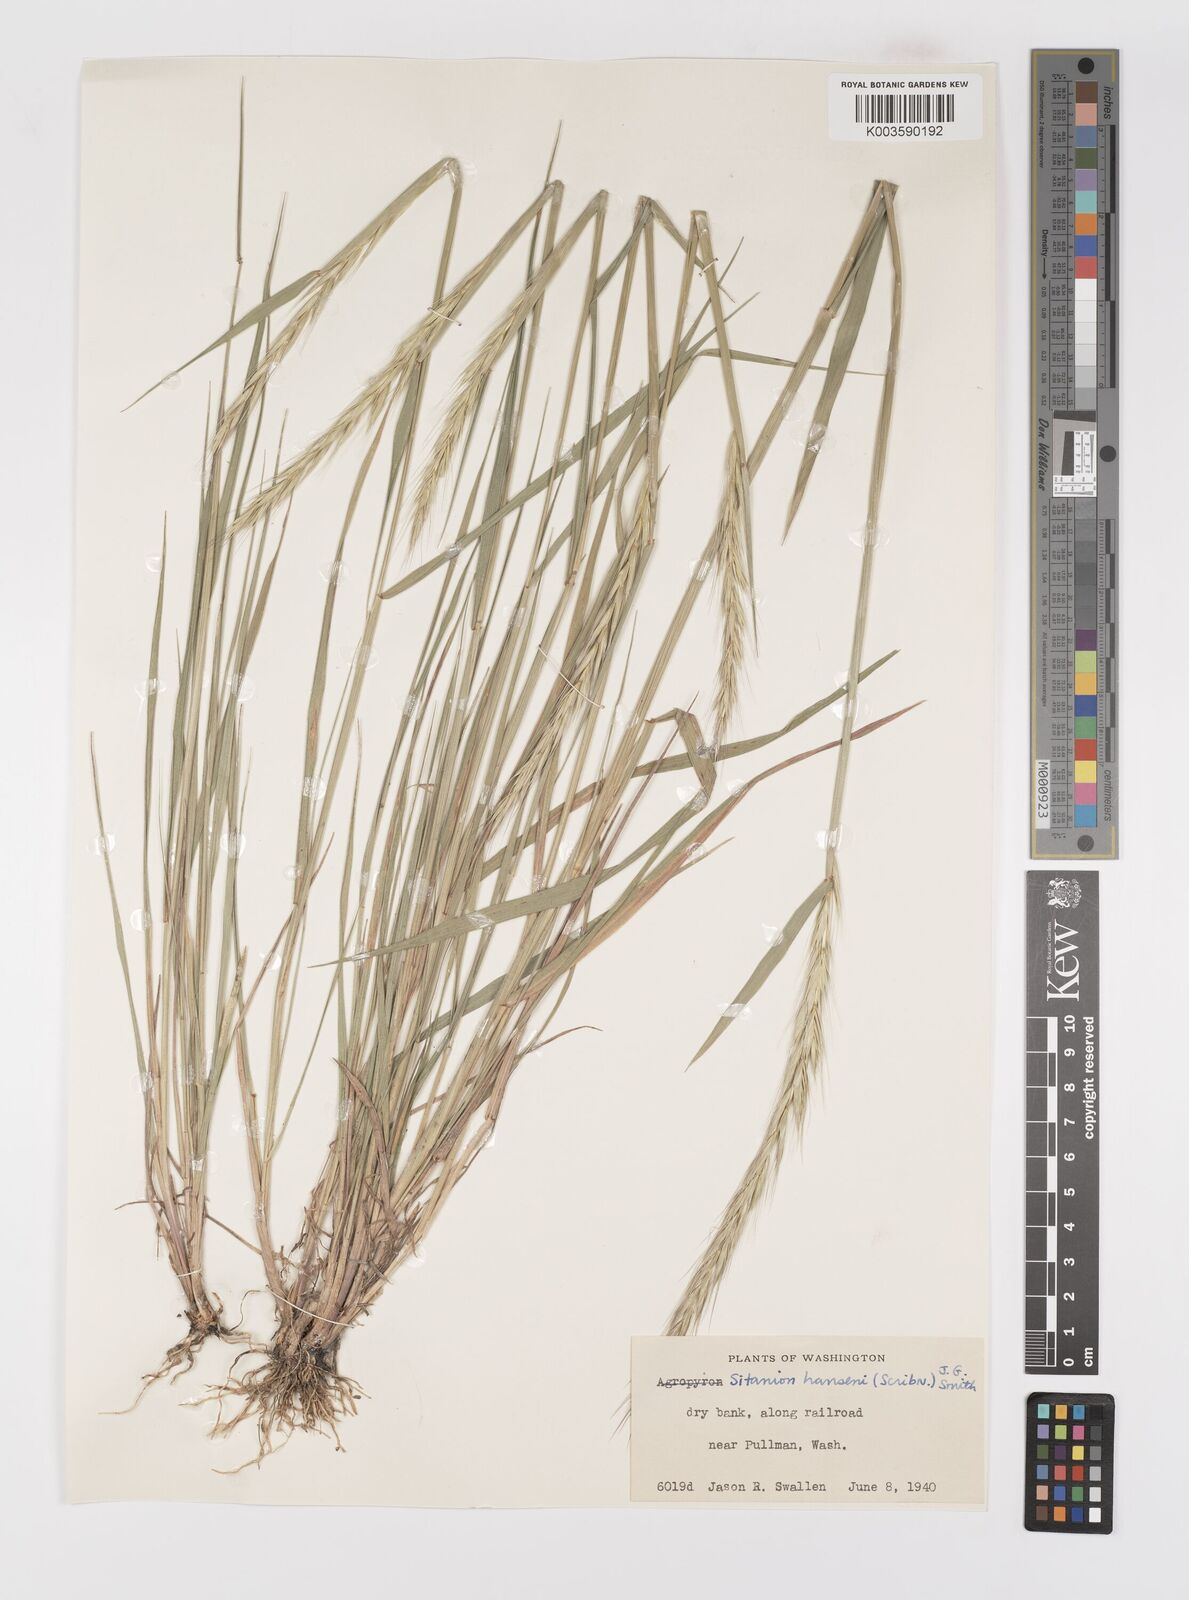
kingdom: Plantae
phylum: Tracheophyta
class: Liliopsida
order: Poales
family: Poaceae
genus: Elymus
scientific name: Elymus hansenii
